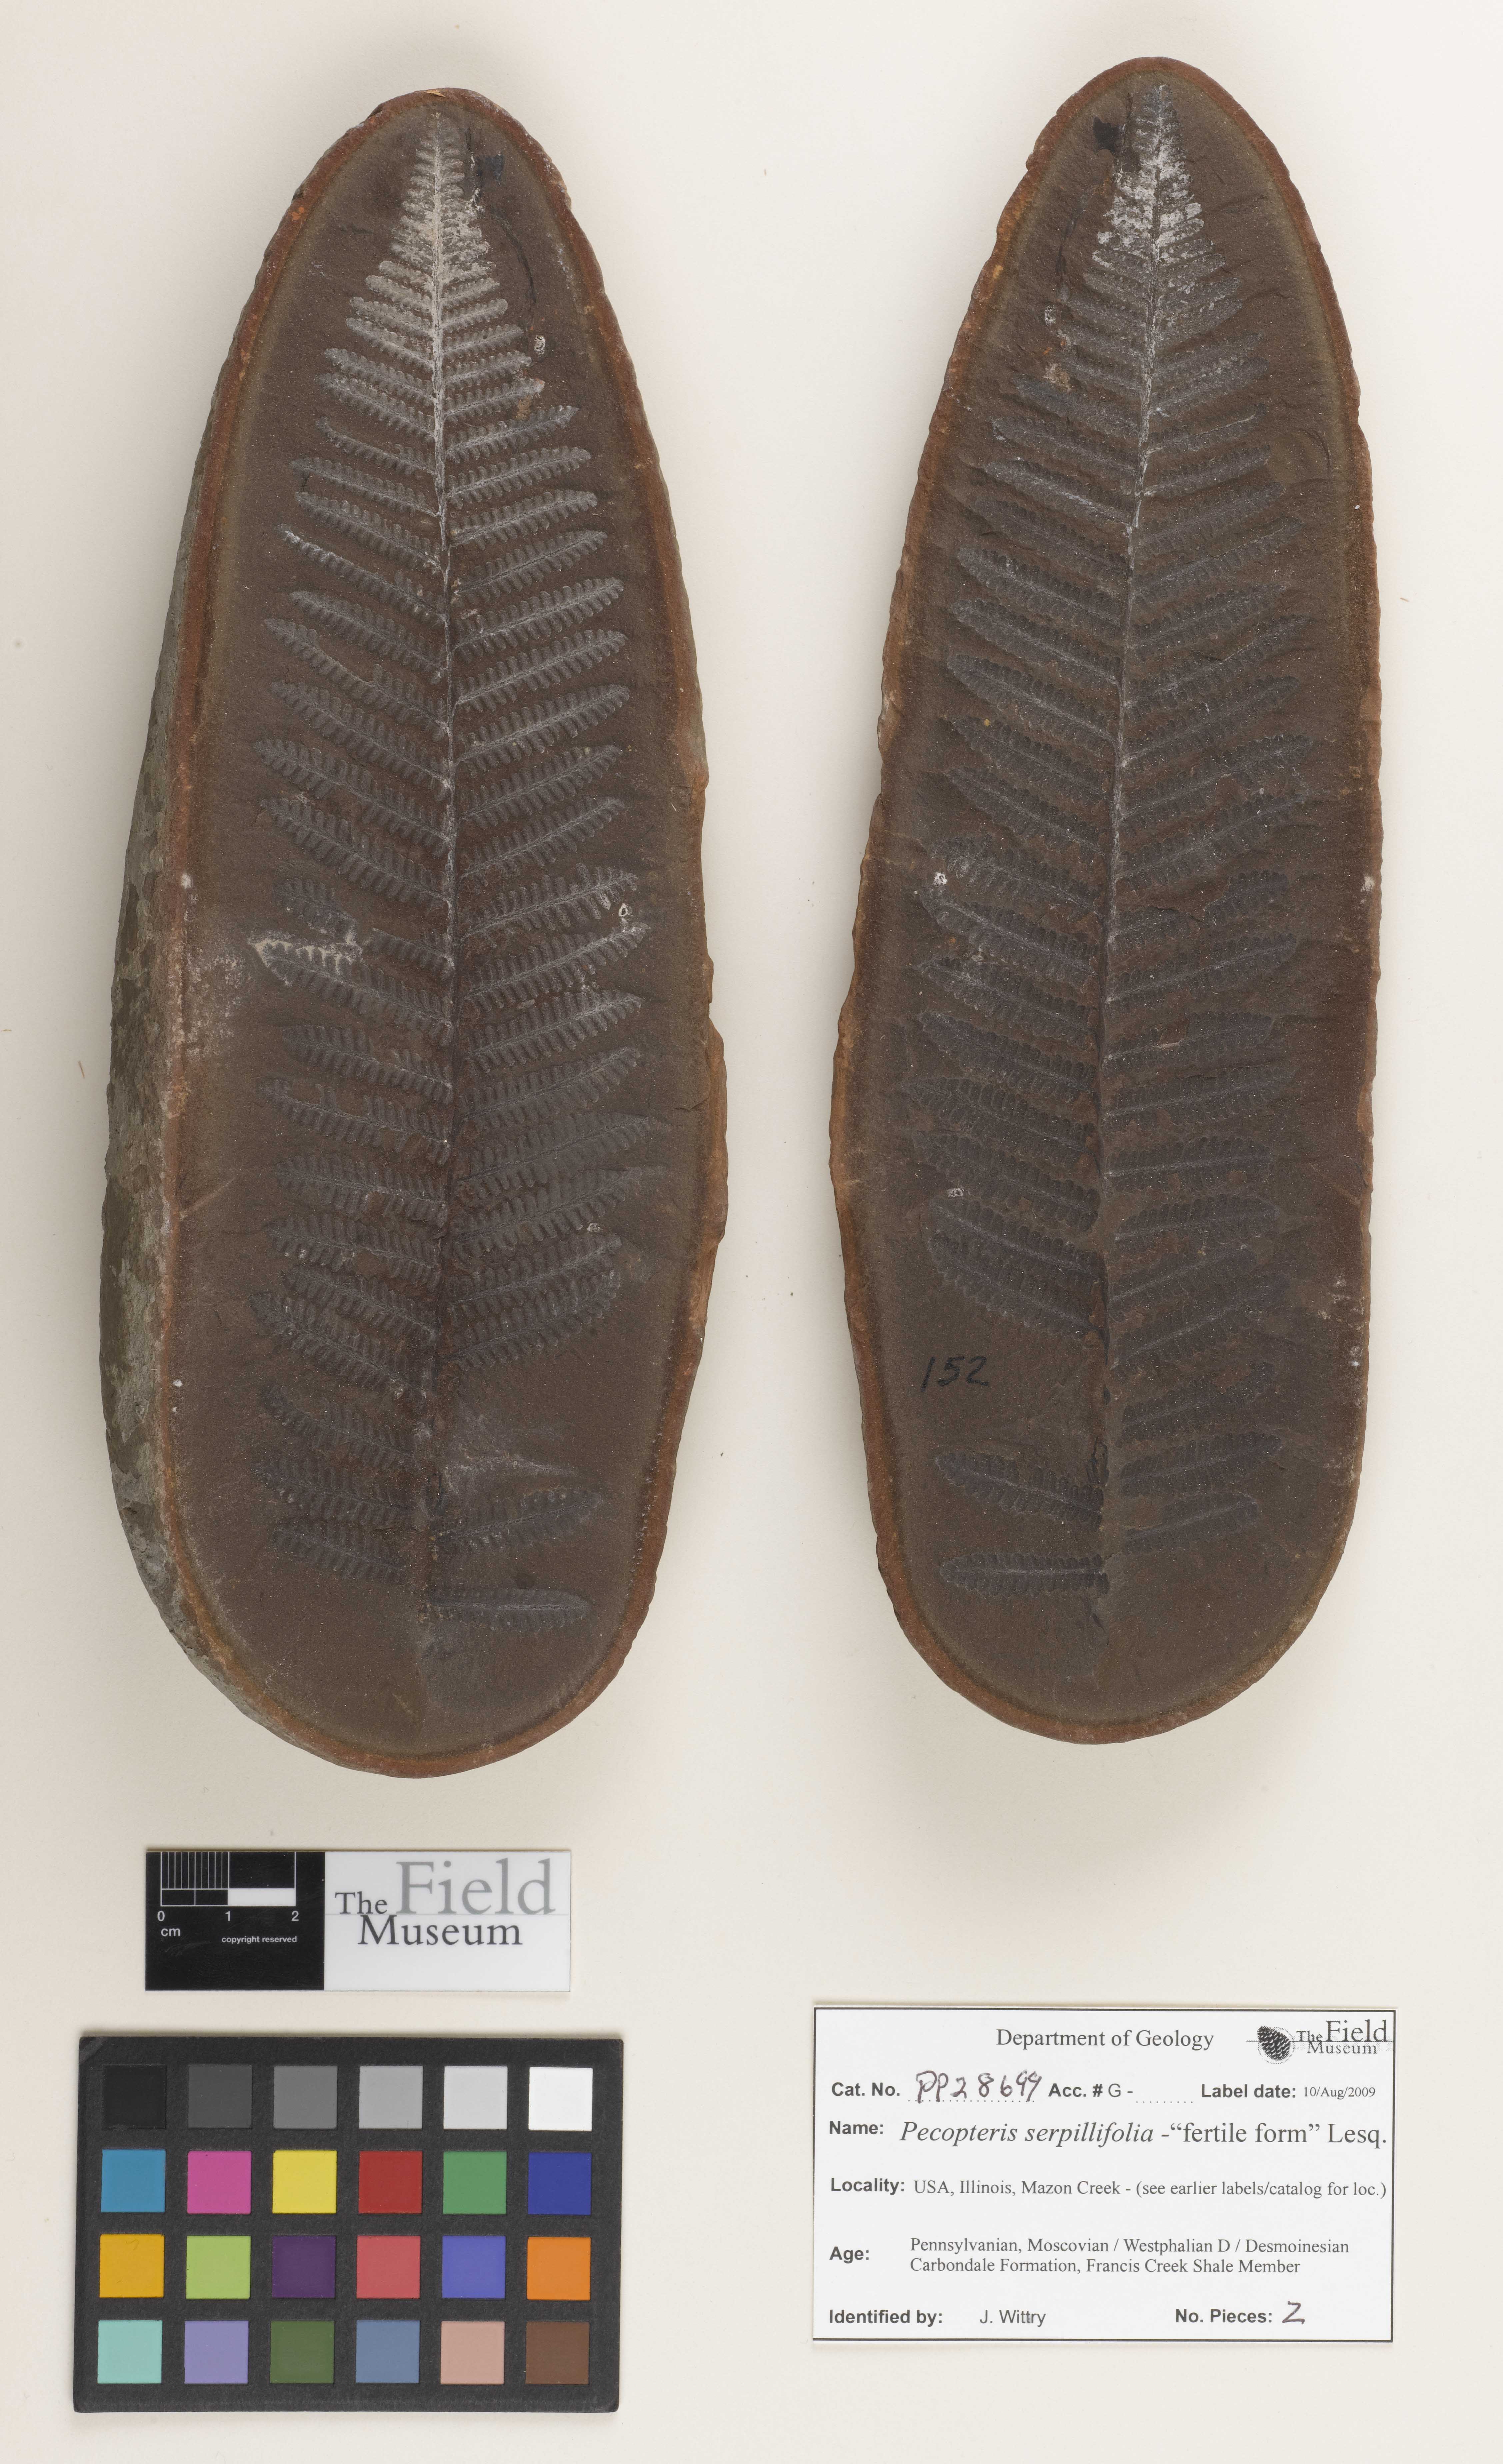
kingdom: Plantae
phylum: Tracheophyta
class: Polypodiopsida
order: Marattiales
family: Asterothecaceae
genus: Pecopteris
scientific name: Pecopteris
